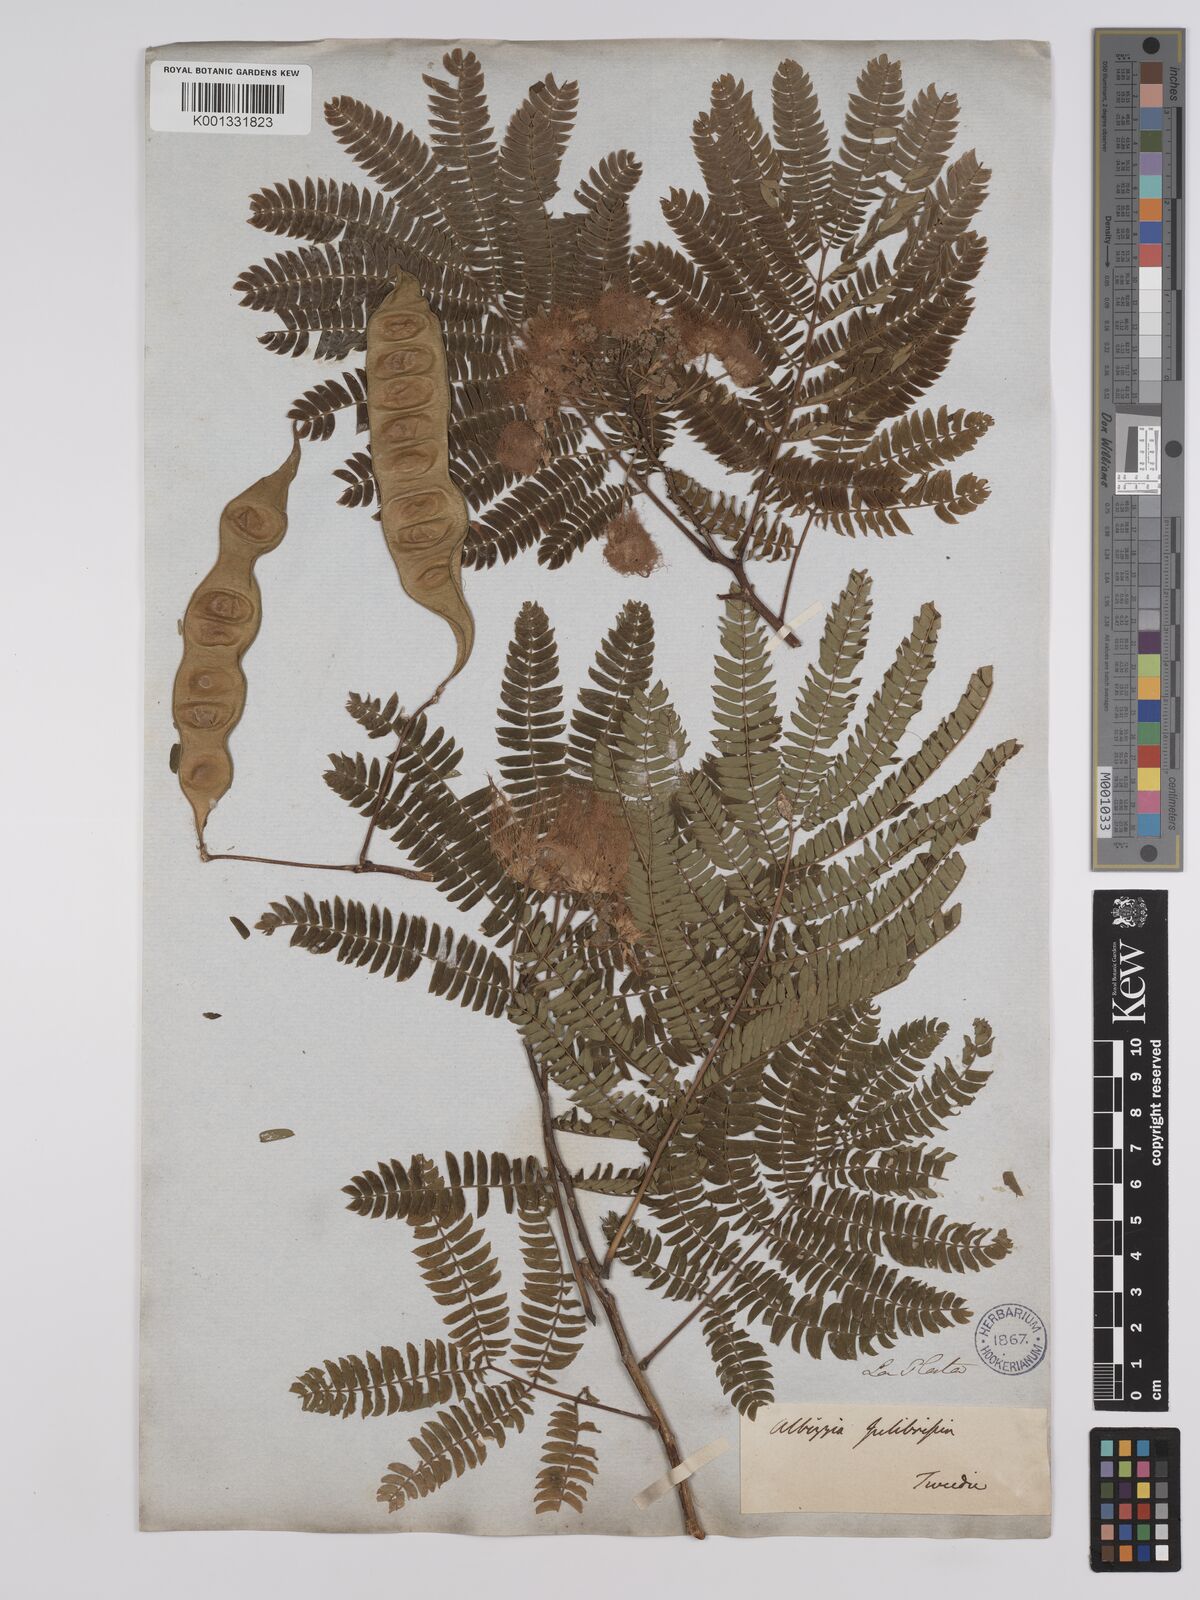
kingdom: Plantae
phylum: Tracheophyta
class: Magnoliopsida
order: Fabales
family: Fabaceae
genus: Albizia
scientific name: Albizia julibrissin
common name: Silktree
